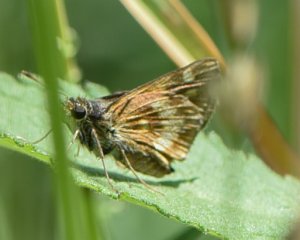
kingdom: Animalia
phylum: Arthropoda
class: Insecta
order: Lepidoptera
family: Hesperiidae
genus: Polites
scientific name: Polites
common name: Long Dash Skipper
